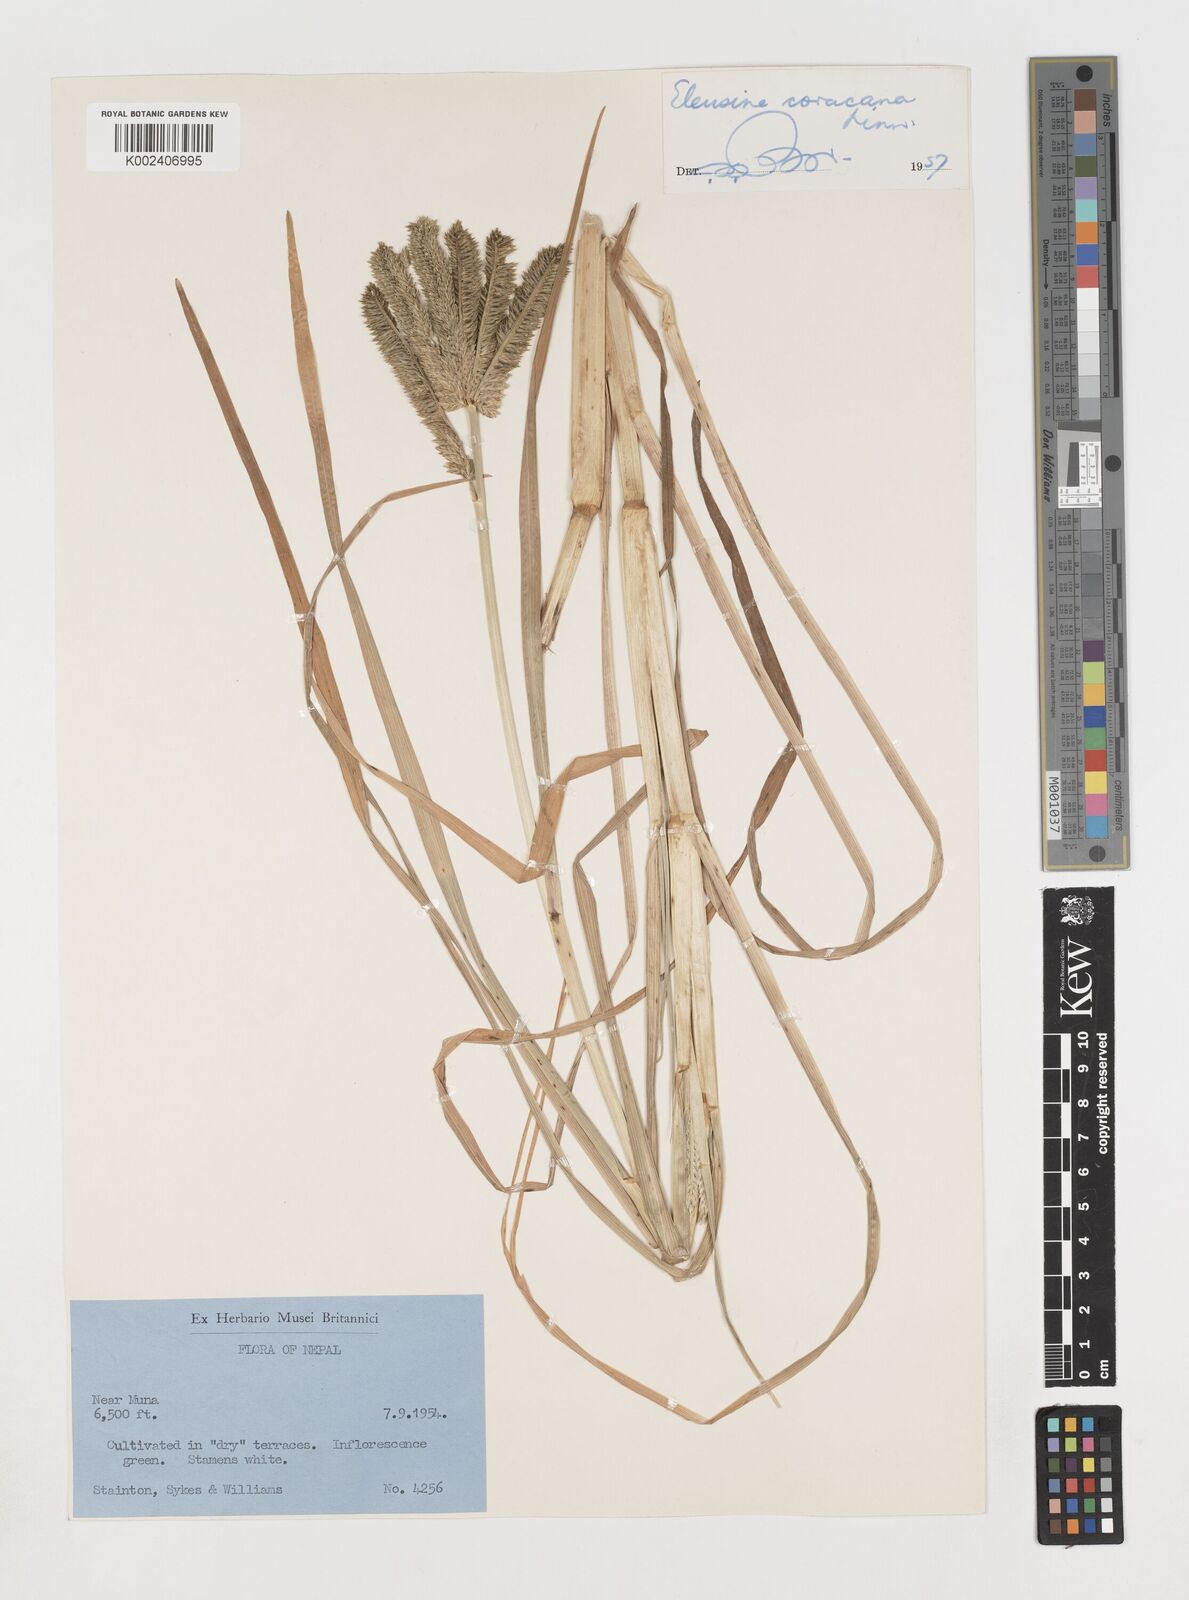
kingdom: Plantae
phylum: Tracheophyta
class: Liliopsida
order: Poales
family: Poaceae
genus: Eleusine
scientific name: Eleusine coracana
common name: Finger millet
